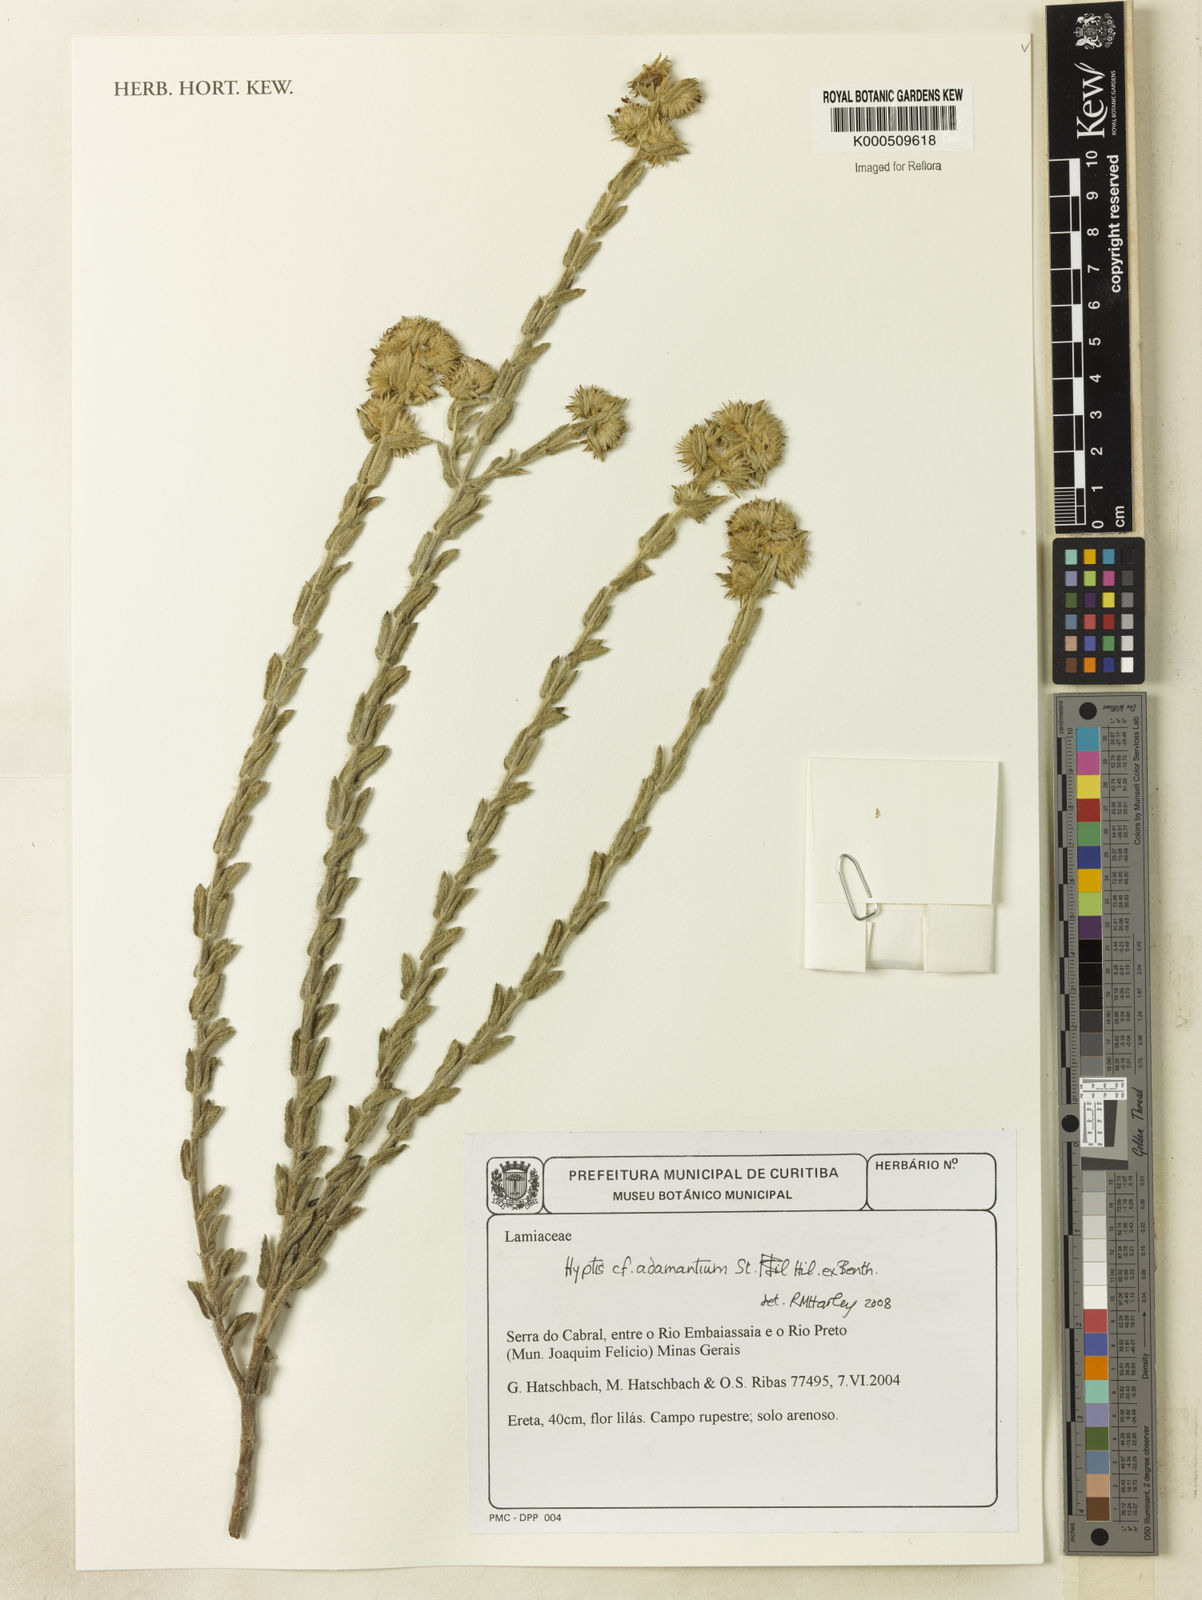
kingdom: Plantae
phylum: Tracheophyta
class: Magnoliopsida
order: Lamiales
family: Lamiaceae
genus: Hyptis
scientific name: Hyptis
